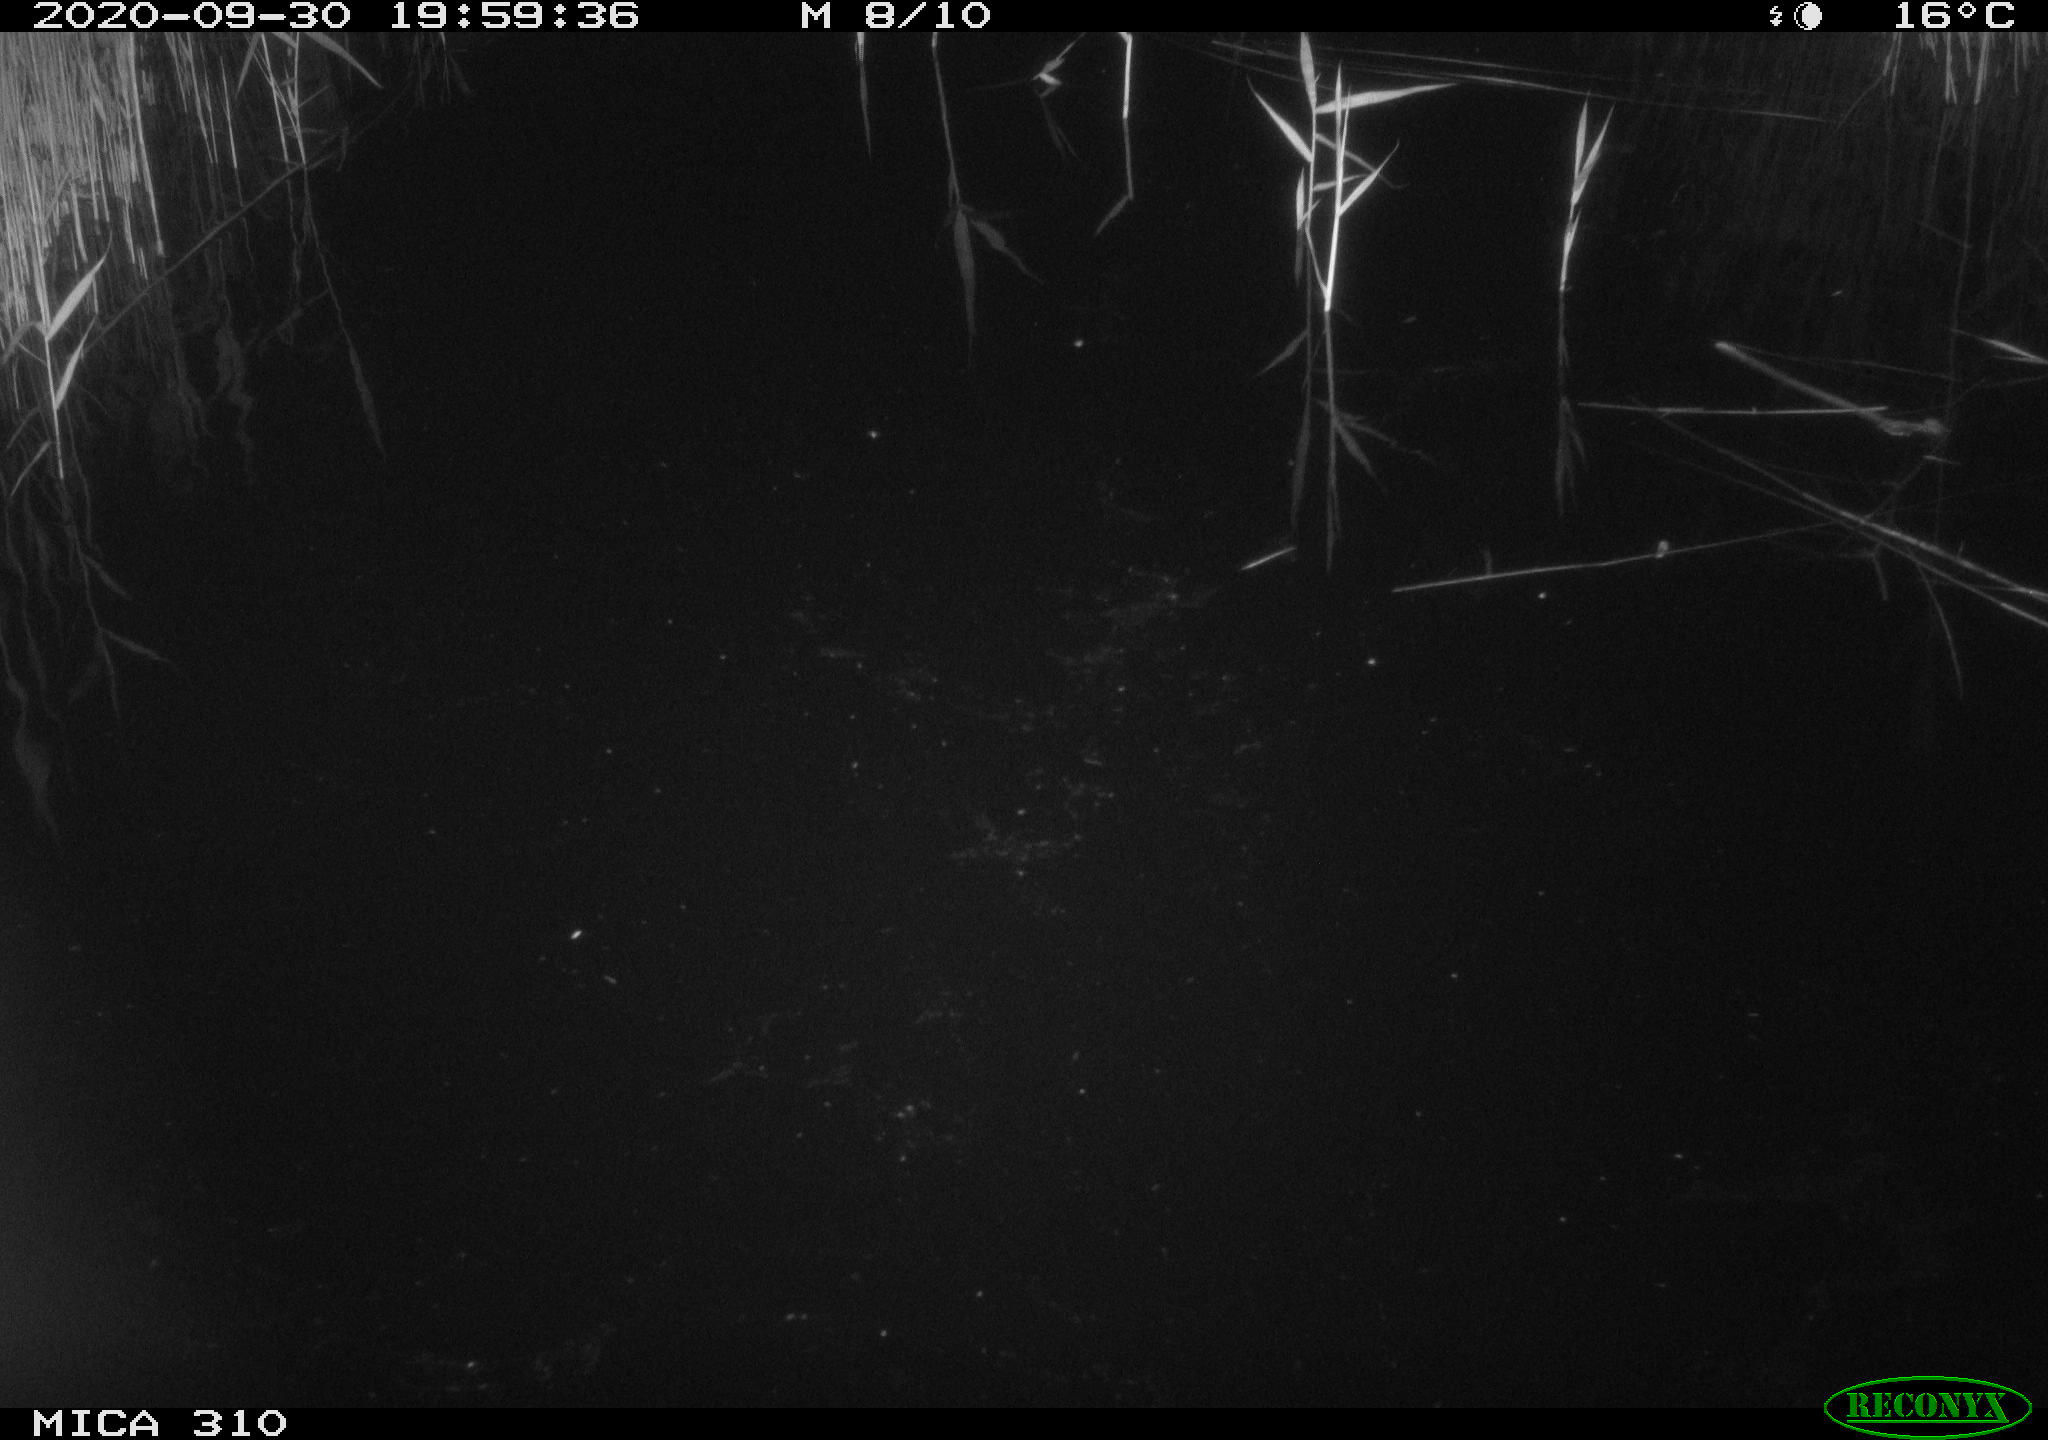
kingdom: Animalia
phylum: Chordata
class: Aves
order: Anseriformes
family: Anatidae
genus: Anas
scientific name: Anas platyrhynchos
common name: Mallard
